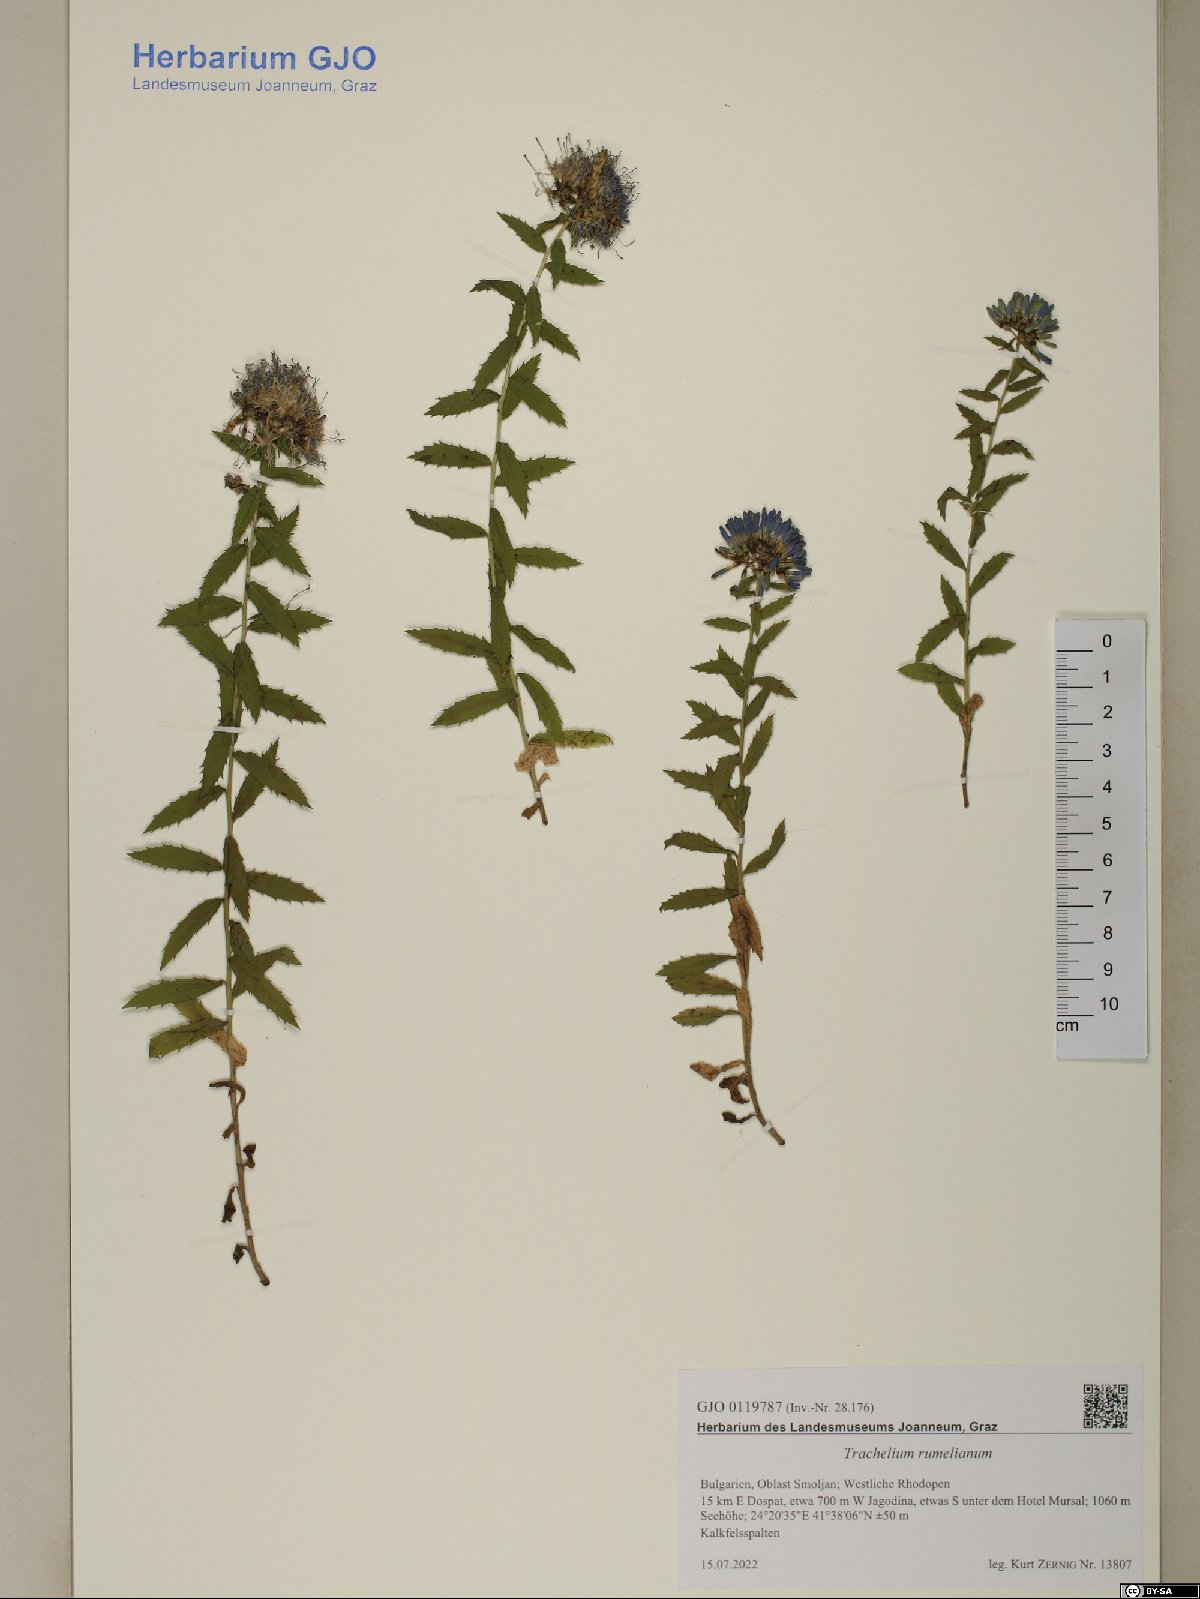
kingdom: Plantae
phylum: Tracheophyta
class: Magnoliopsida
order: Asterales
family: Campanulaceae
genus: Campanula
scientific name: Campanula rumeliana
